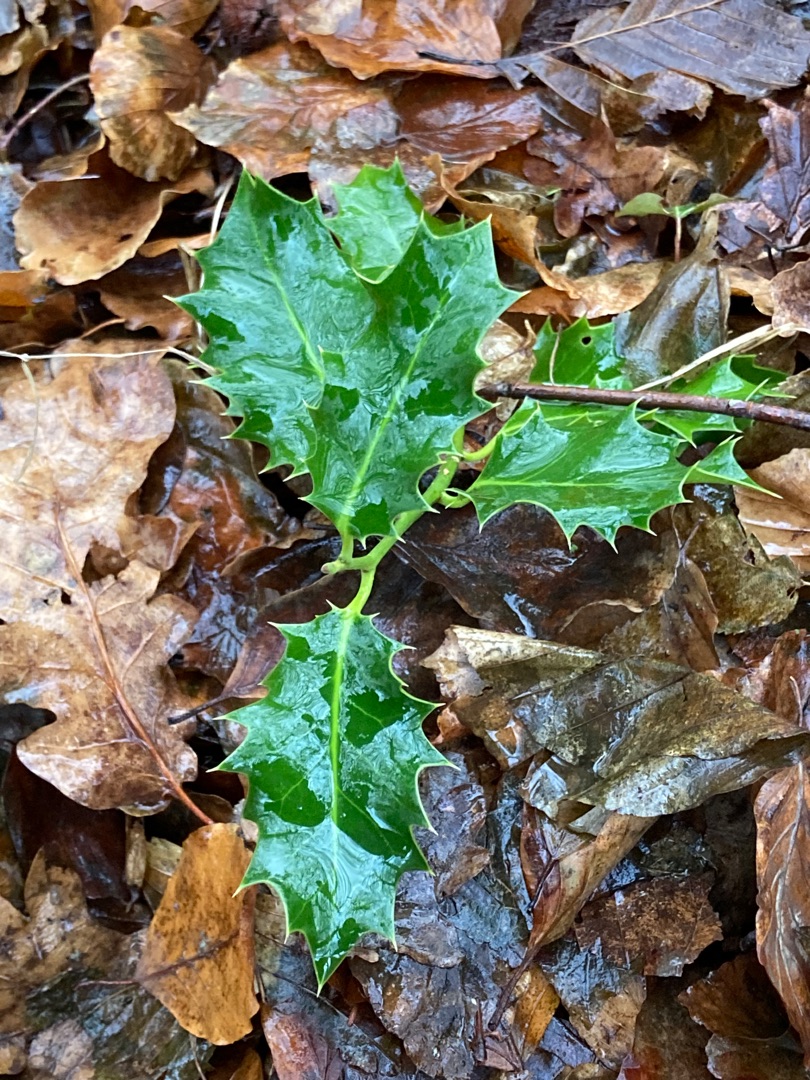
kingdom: Plantae
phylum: Tracheophyta
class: Magnoliopsida
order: Aquifoliales
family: Aquifoliaceae
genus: Ilex
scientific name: Ilex aquifolium
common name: Kristtorn
